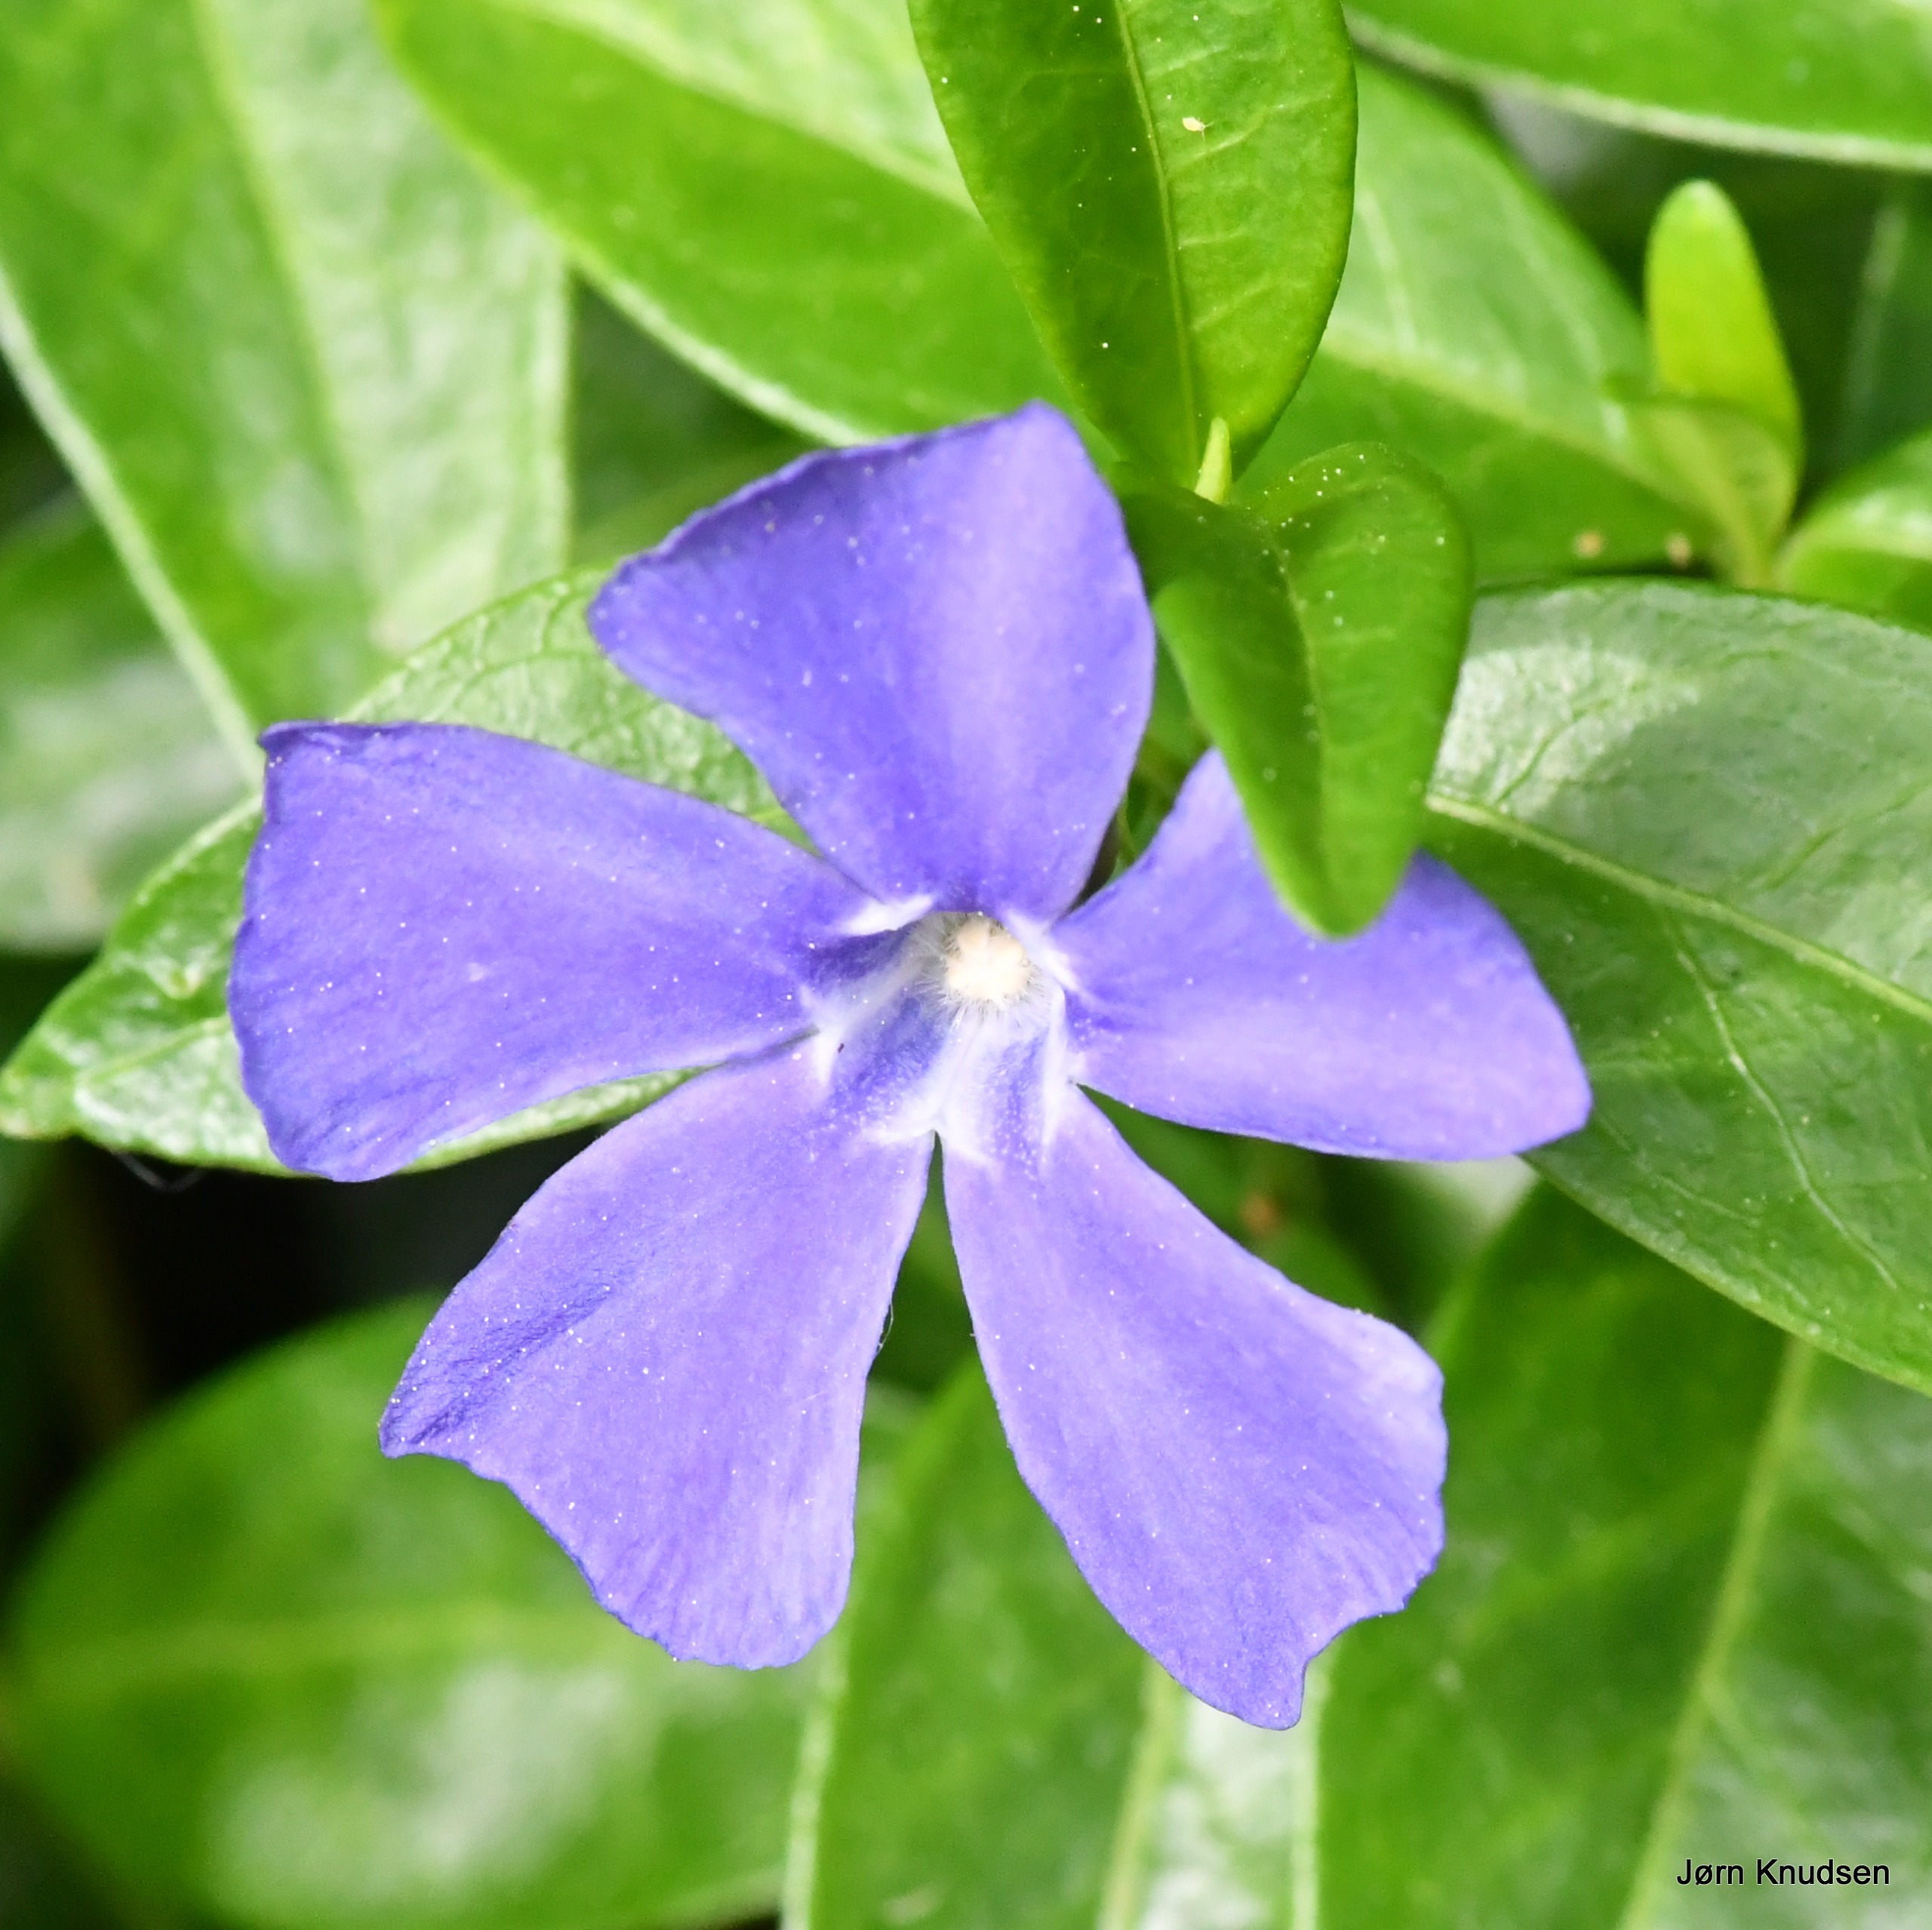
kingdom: Plantae
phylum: Tracheophyta
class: Magnoliopsida
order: Gentianales
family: Apocynaceae
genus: Vinca
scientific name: Vinca minor
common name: Liden singrøn
